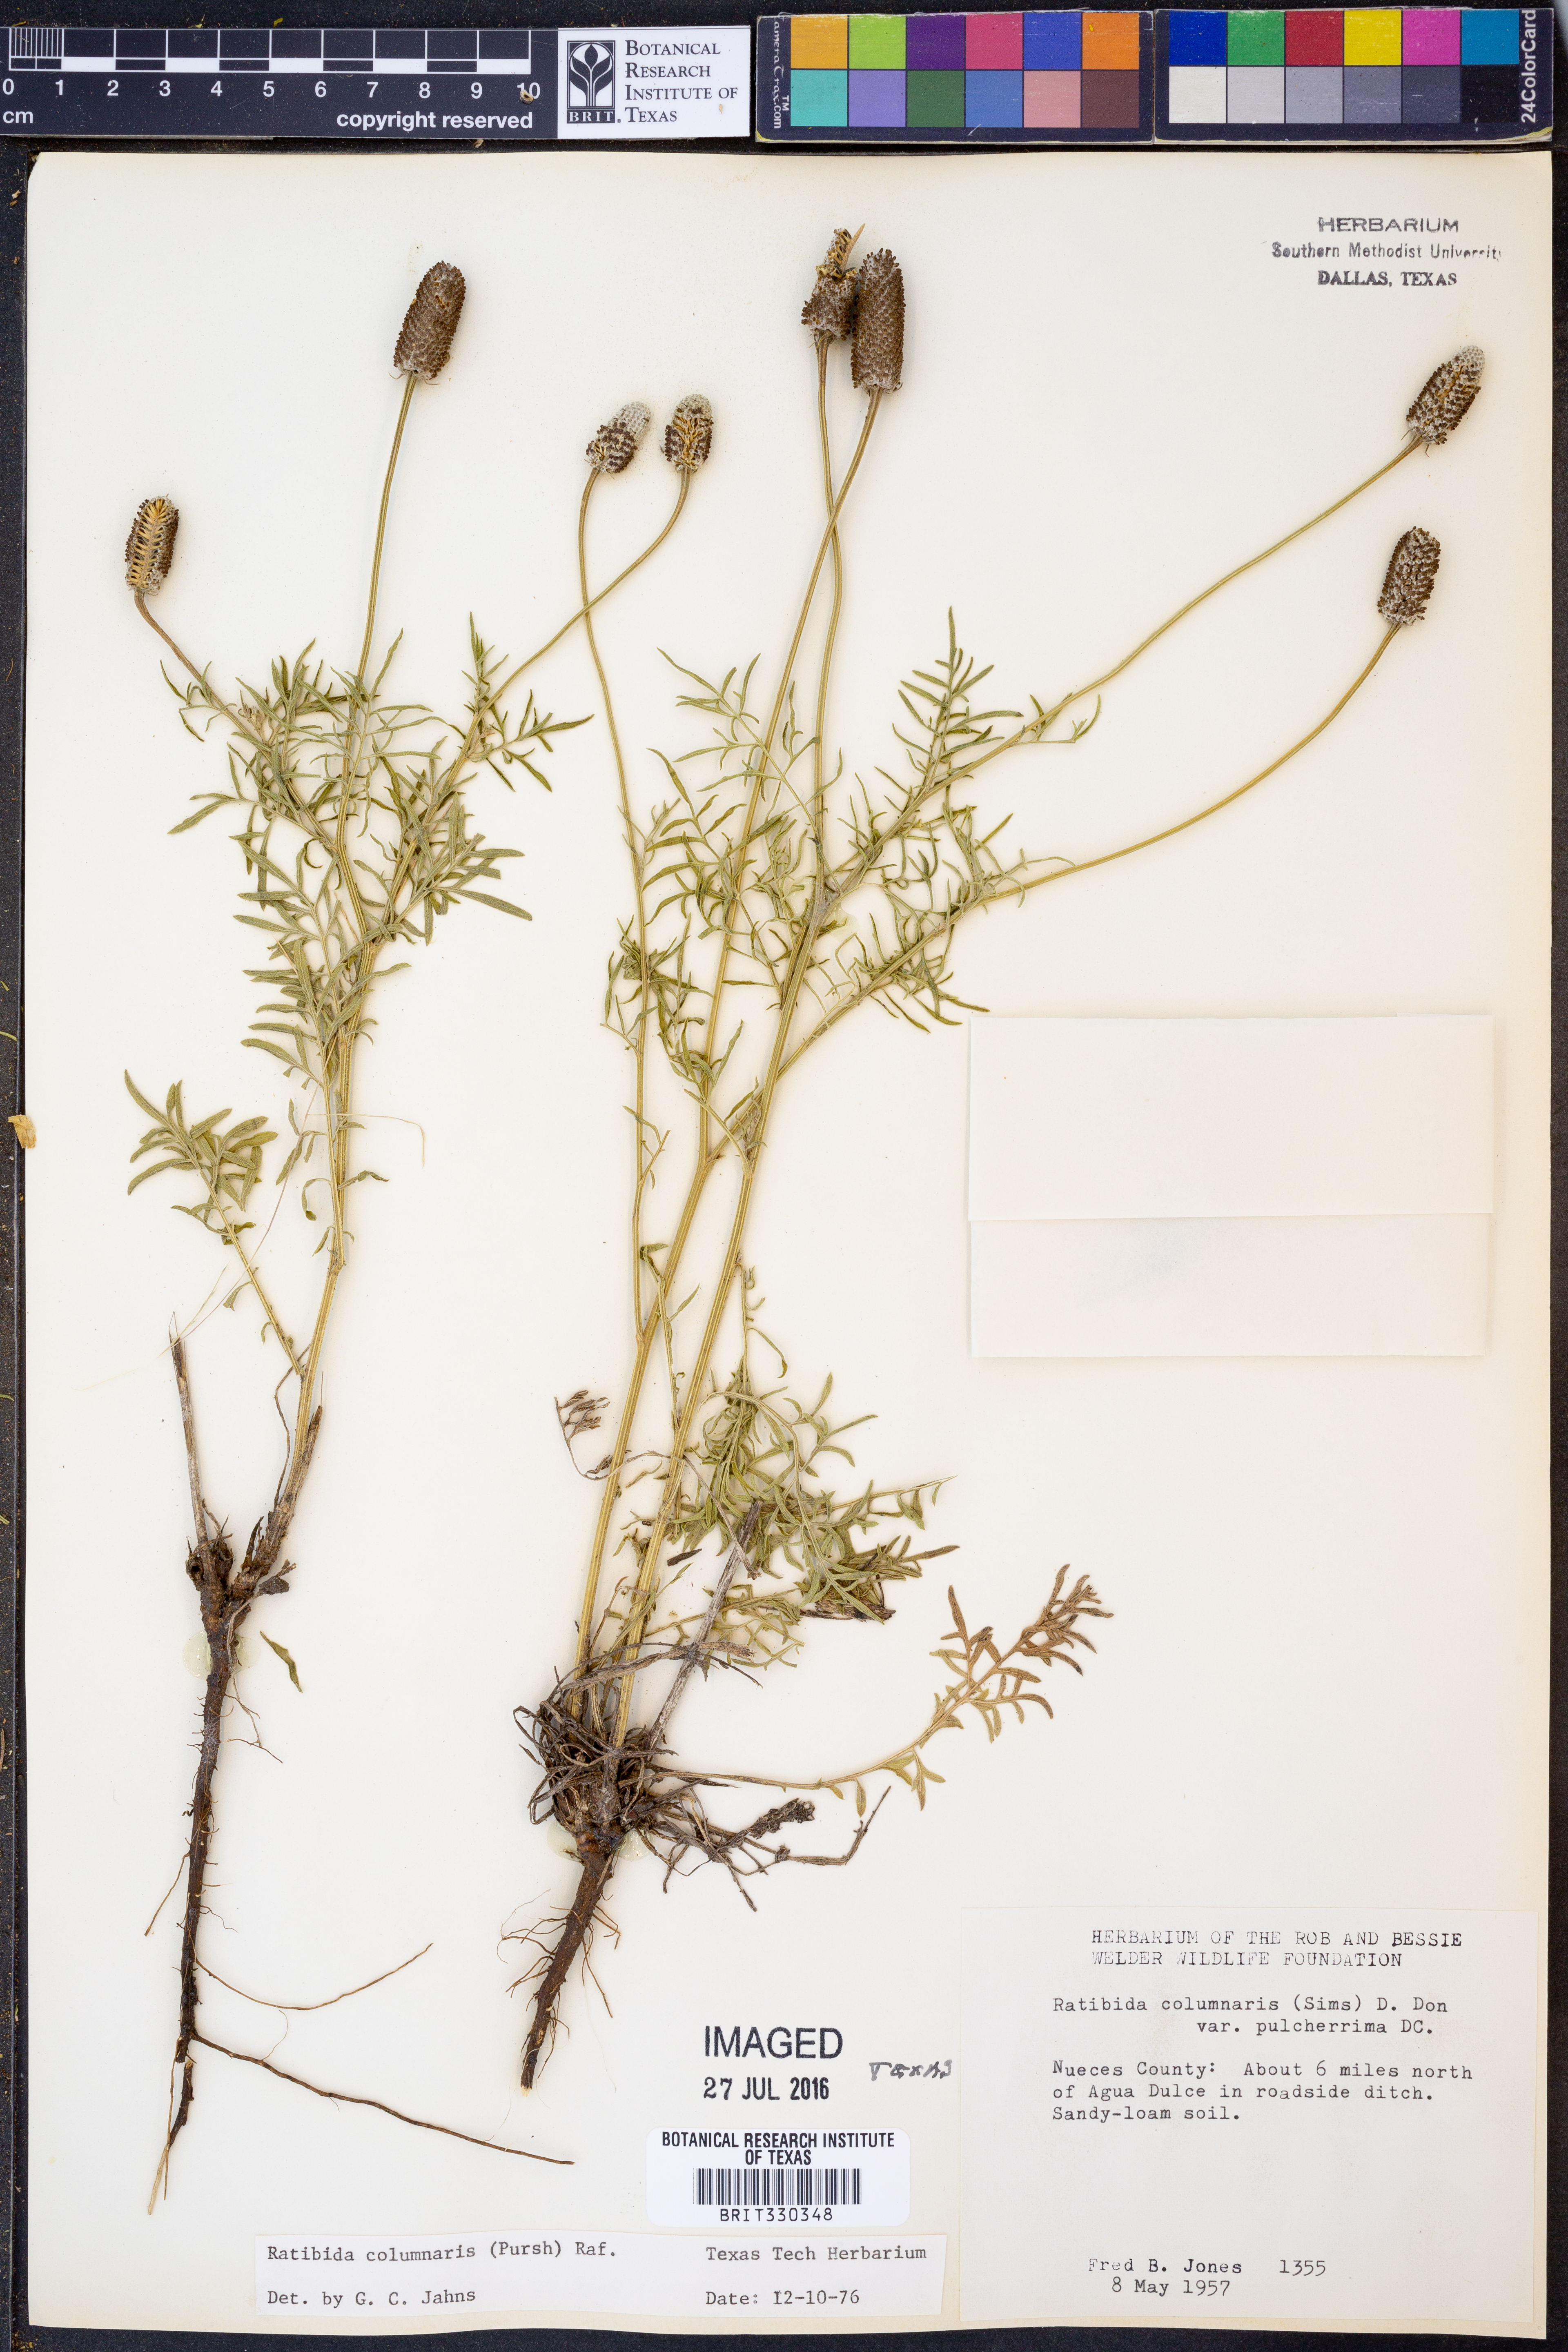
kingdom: Plantae
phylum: Tracheophyta
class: Magnoliopsida
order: Asterales
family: Asteraceae
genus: Ratibida
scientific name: Ratibida columnifera
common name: Prairie coneflower
